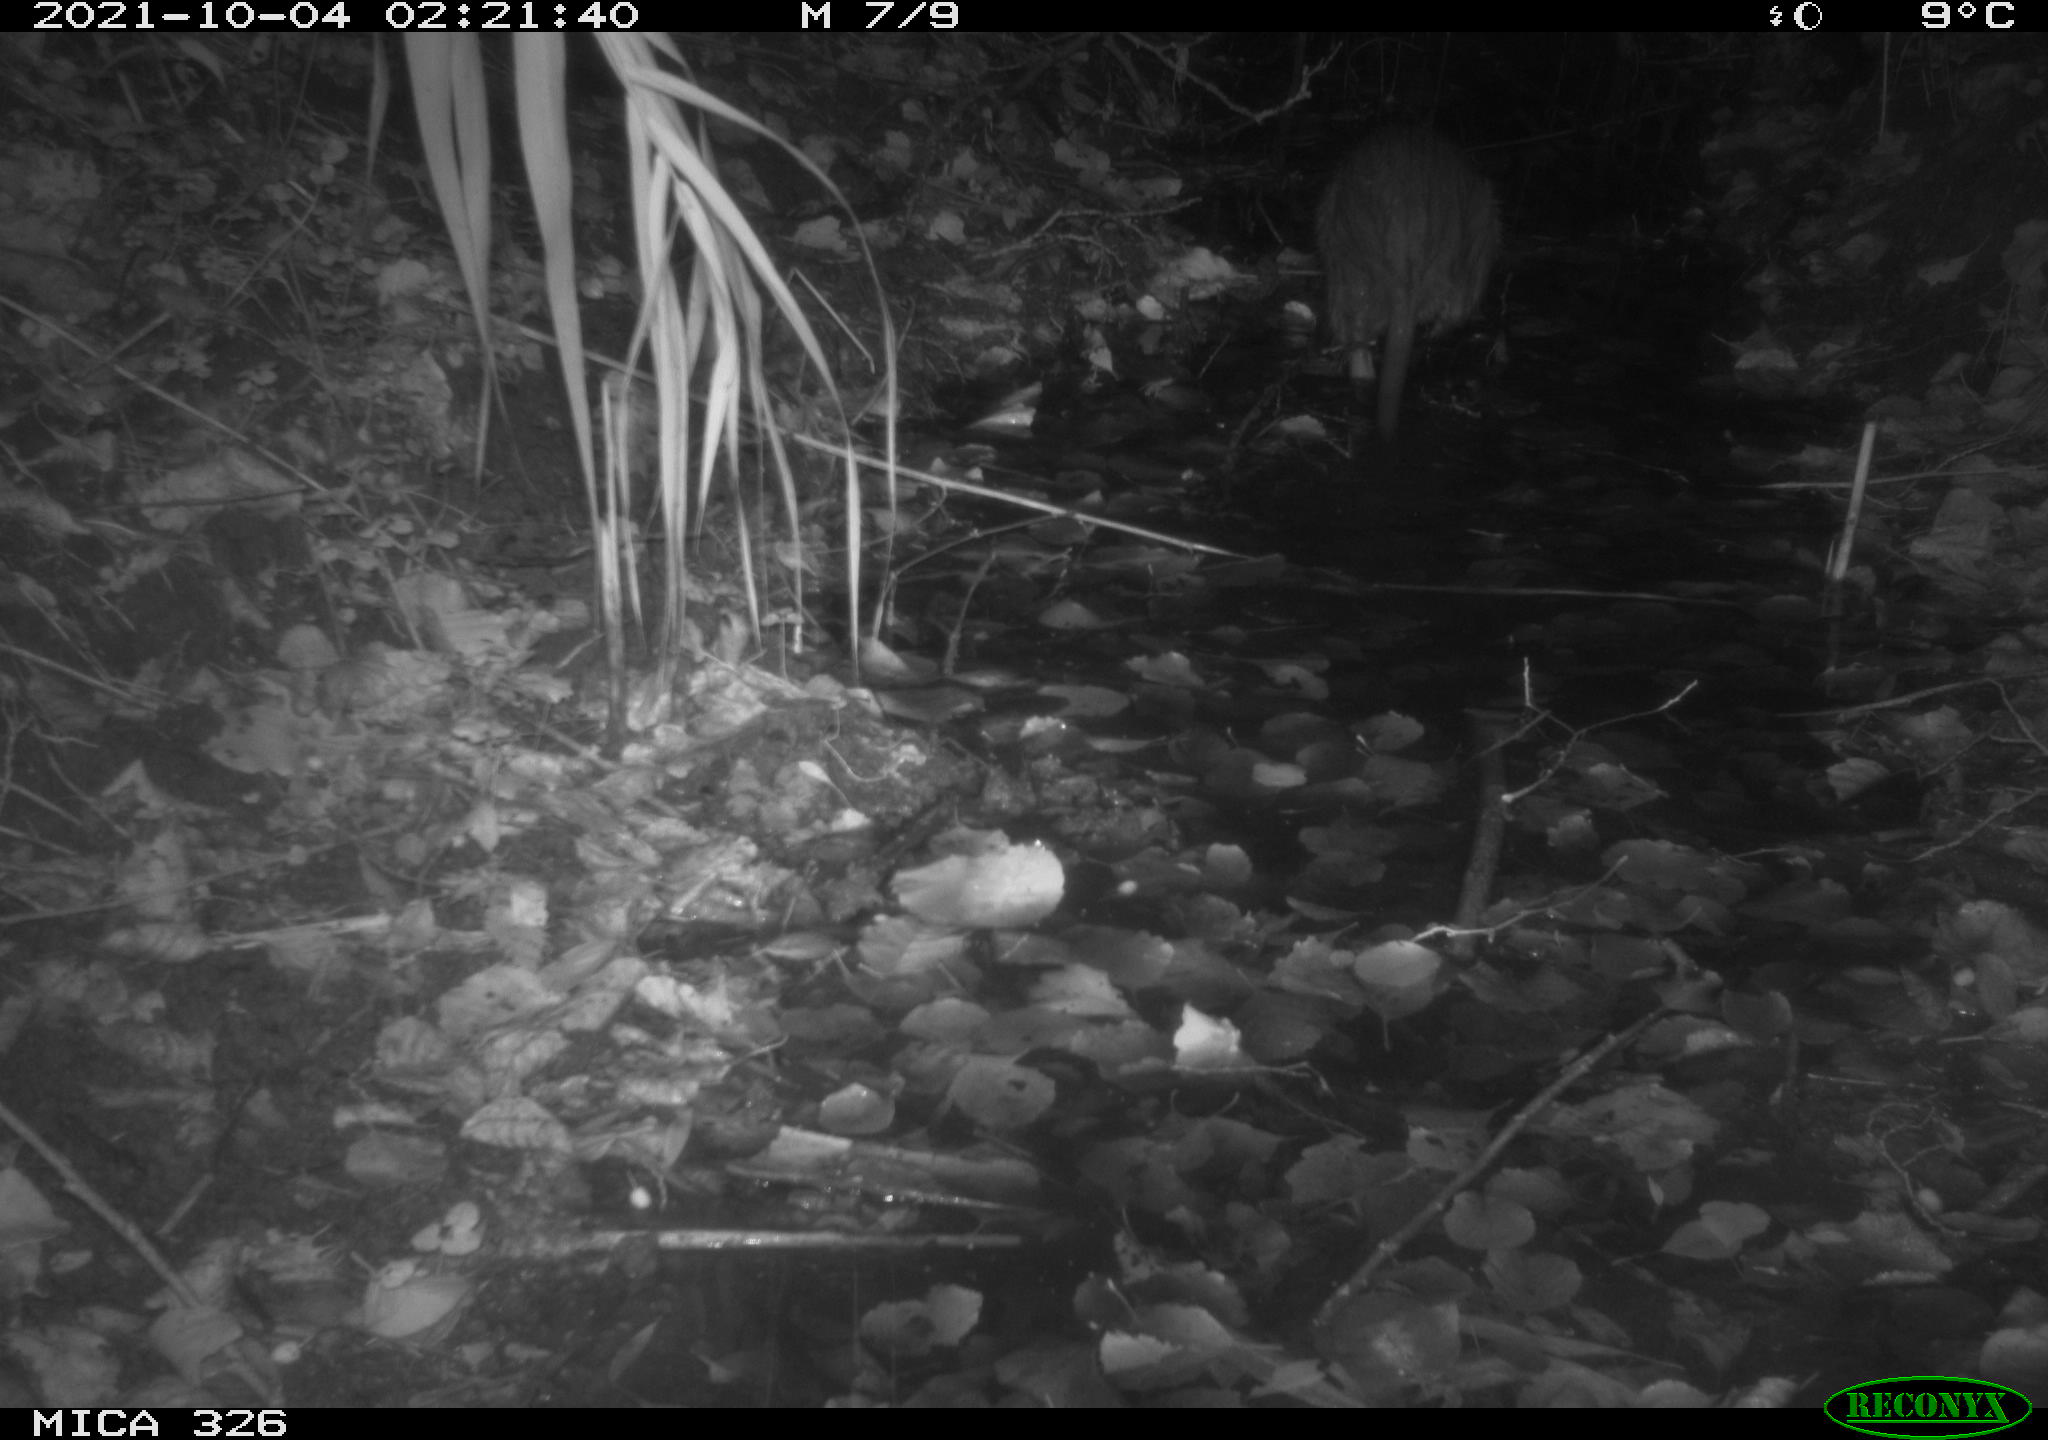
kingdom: Animalia
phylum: Chordata
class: Mammalia
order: Rodentia
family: Myocastoridae
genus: Myocastor
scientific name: Myocastor coypus
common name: Coypu
